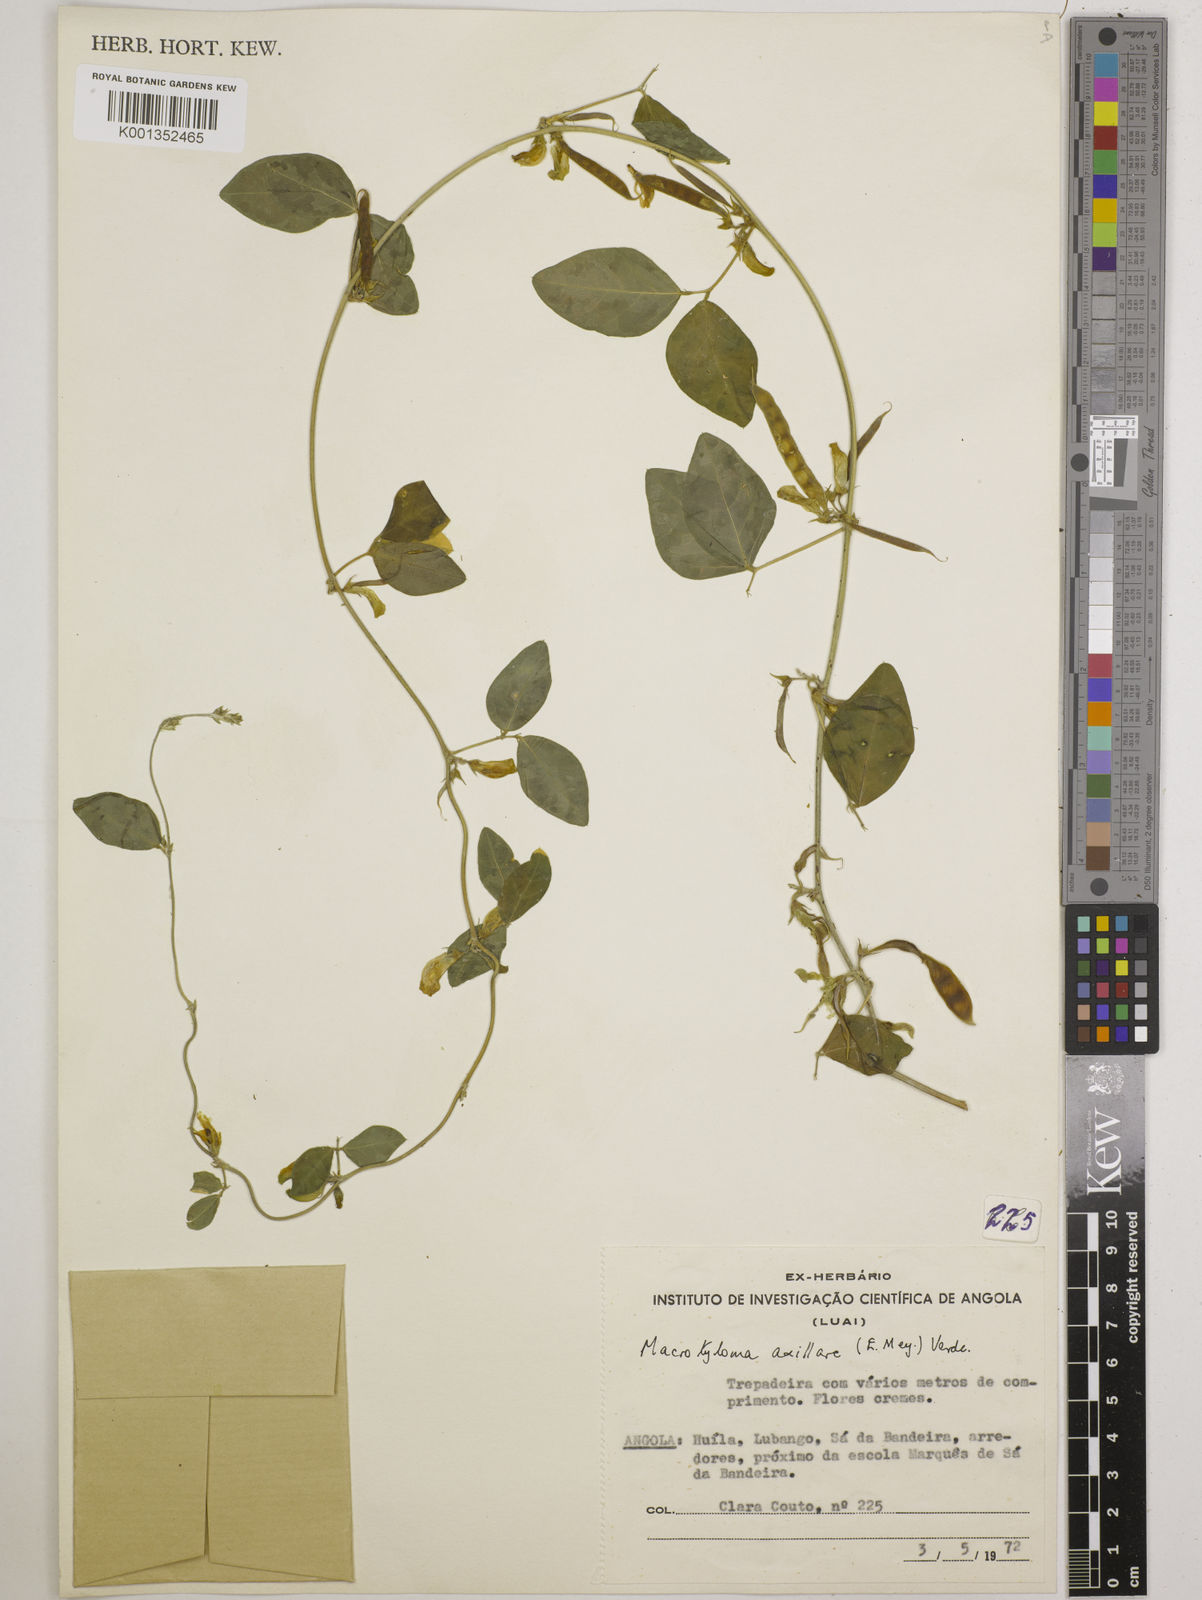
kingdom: Plantae
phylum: Tracheophyta
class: Magnoliopsida
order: Fabales
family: Fabaceae
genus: Macrotyloma
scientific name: Macrotyloma axillare
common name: Perennial horsegram
